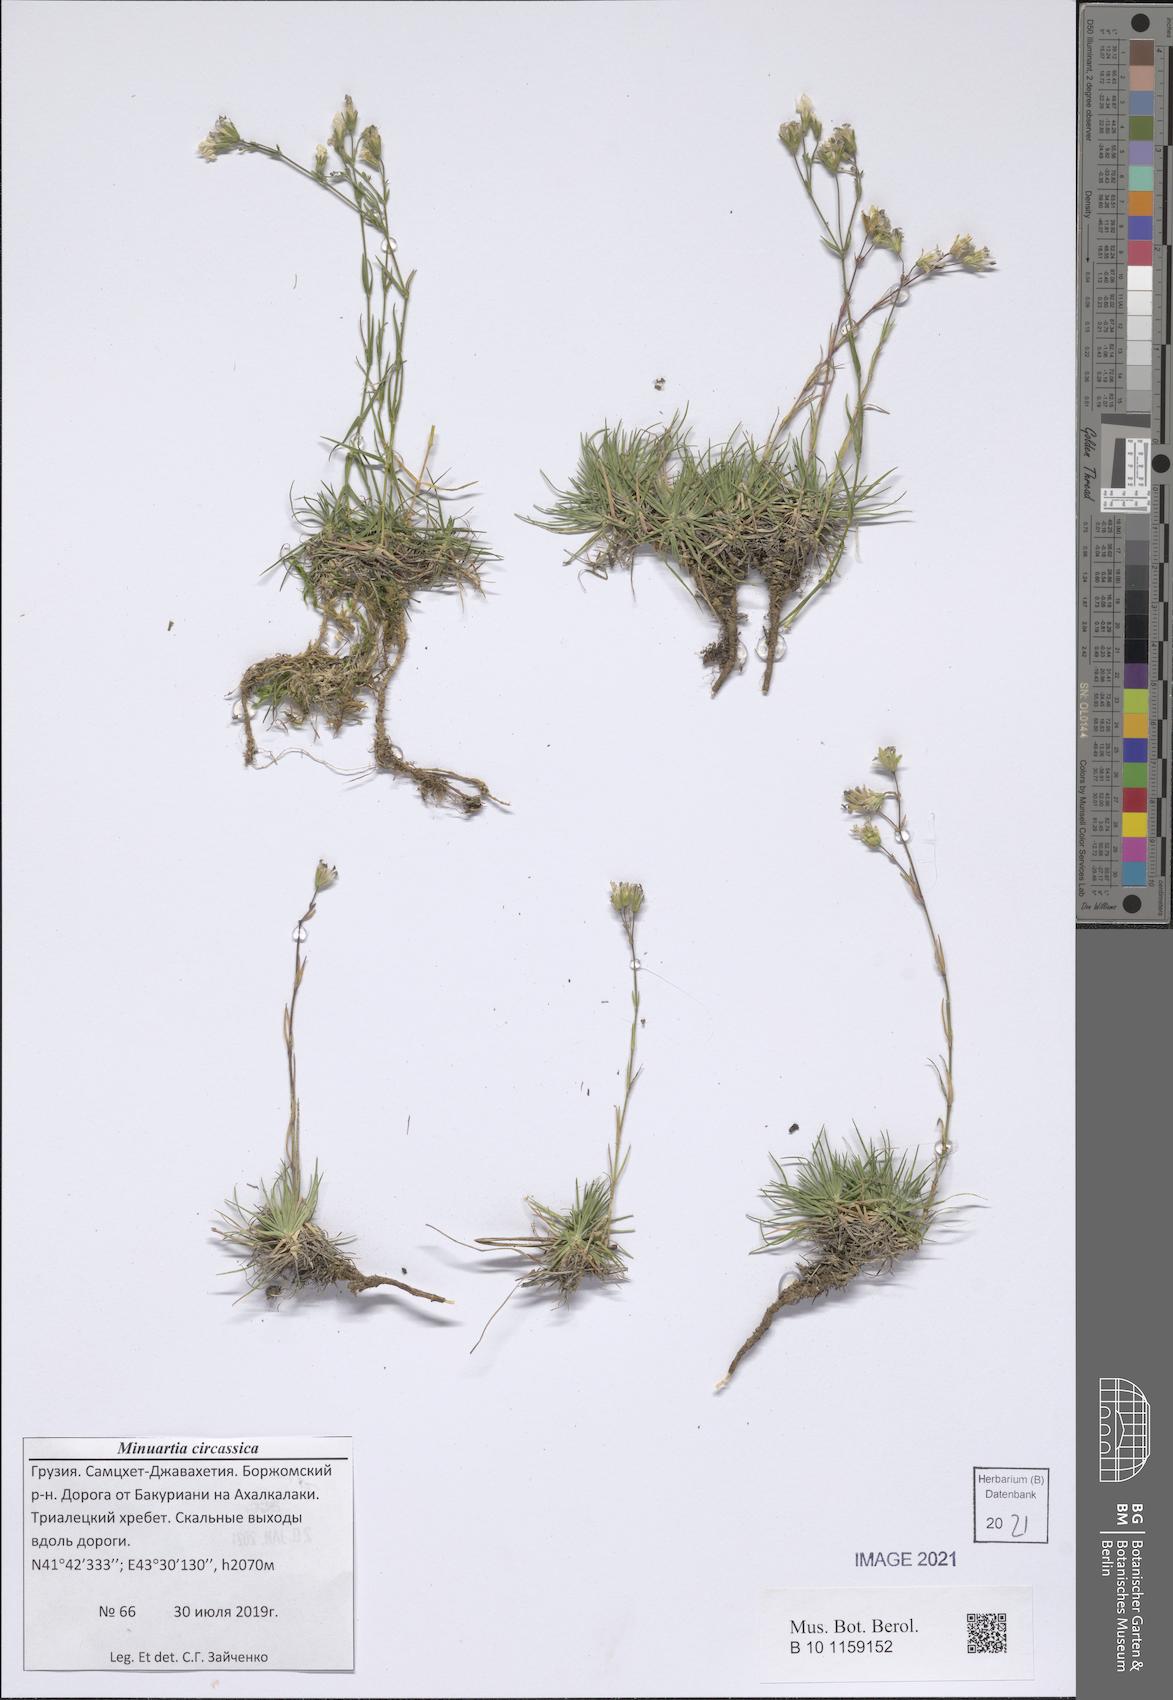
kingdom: Plantae
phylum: Tracheophyta
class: Magnoliopsida
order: Caryophyllales
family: Caryophyllaceae
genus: Cherleria
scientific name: Cherleria circassica
